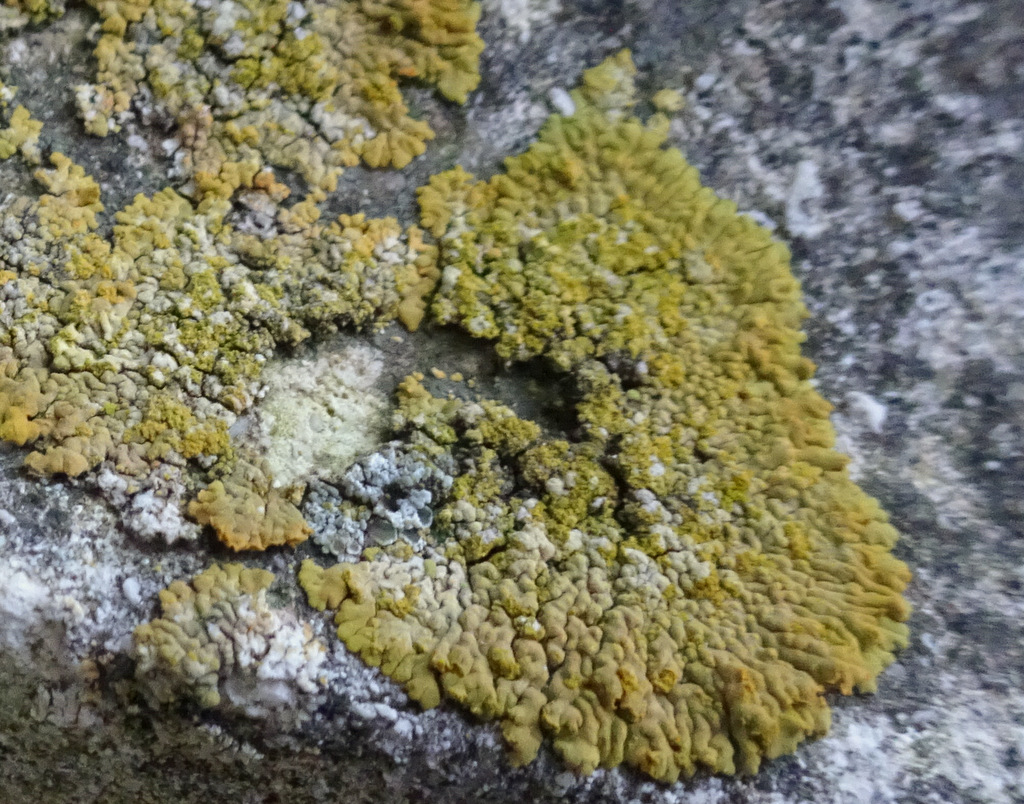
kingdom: Fungi
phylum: Ascomycota
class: Lecanoromycetes
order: Teloschistales
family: Teloschistaceae
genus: Calogaya
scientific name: Calogaya decipiens
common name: knudret orangelav
